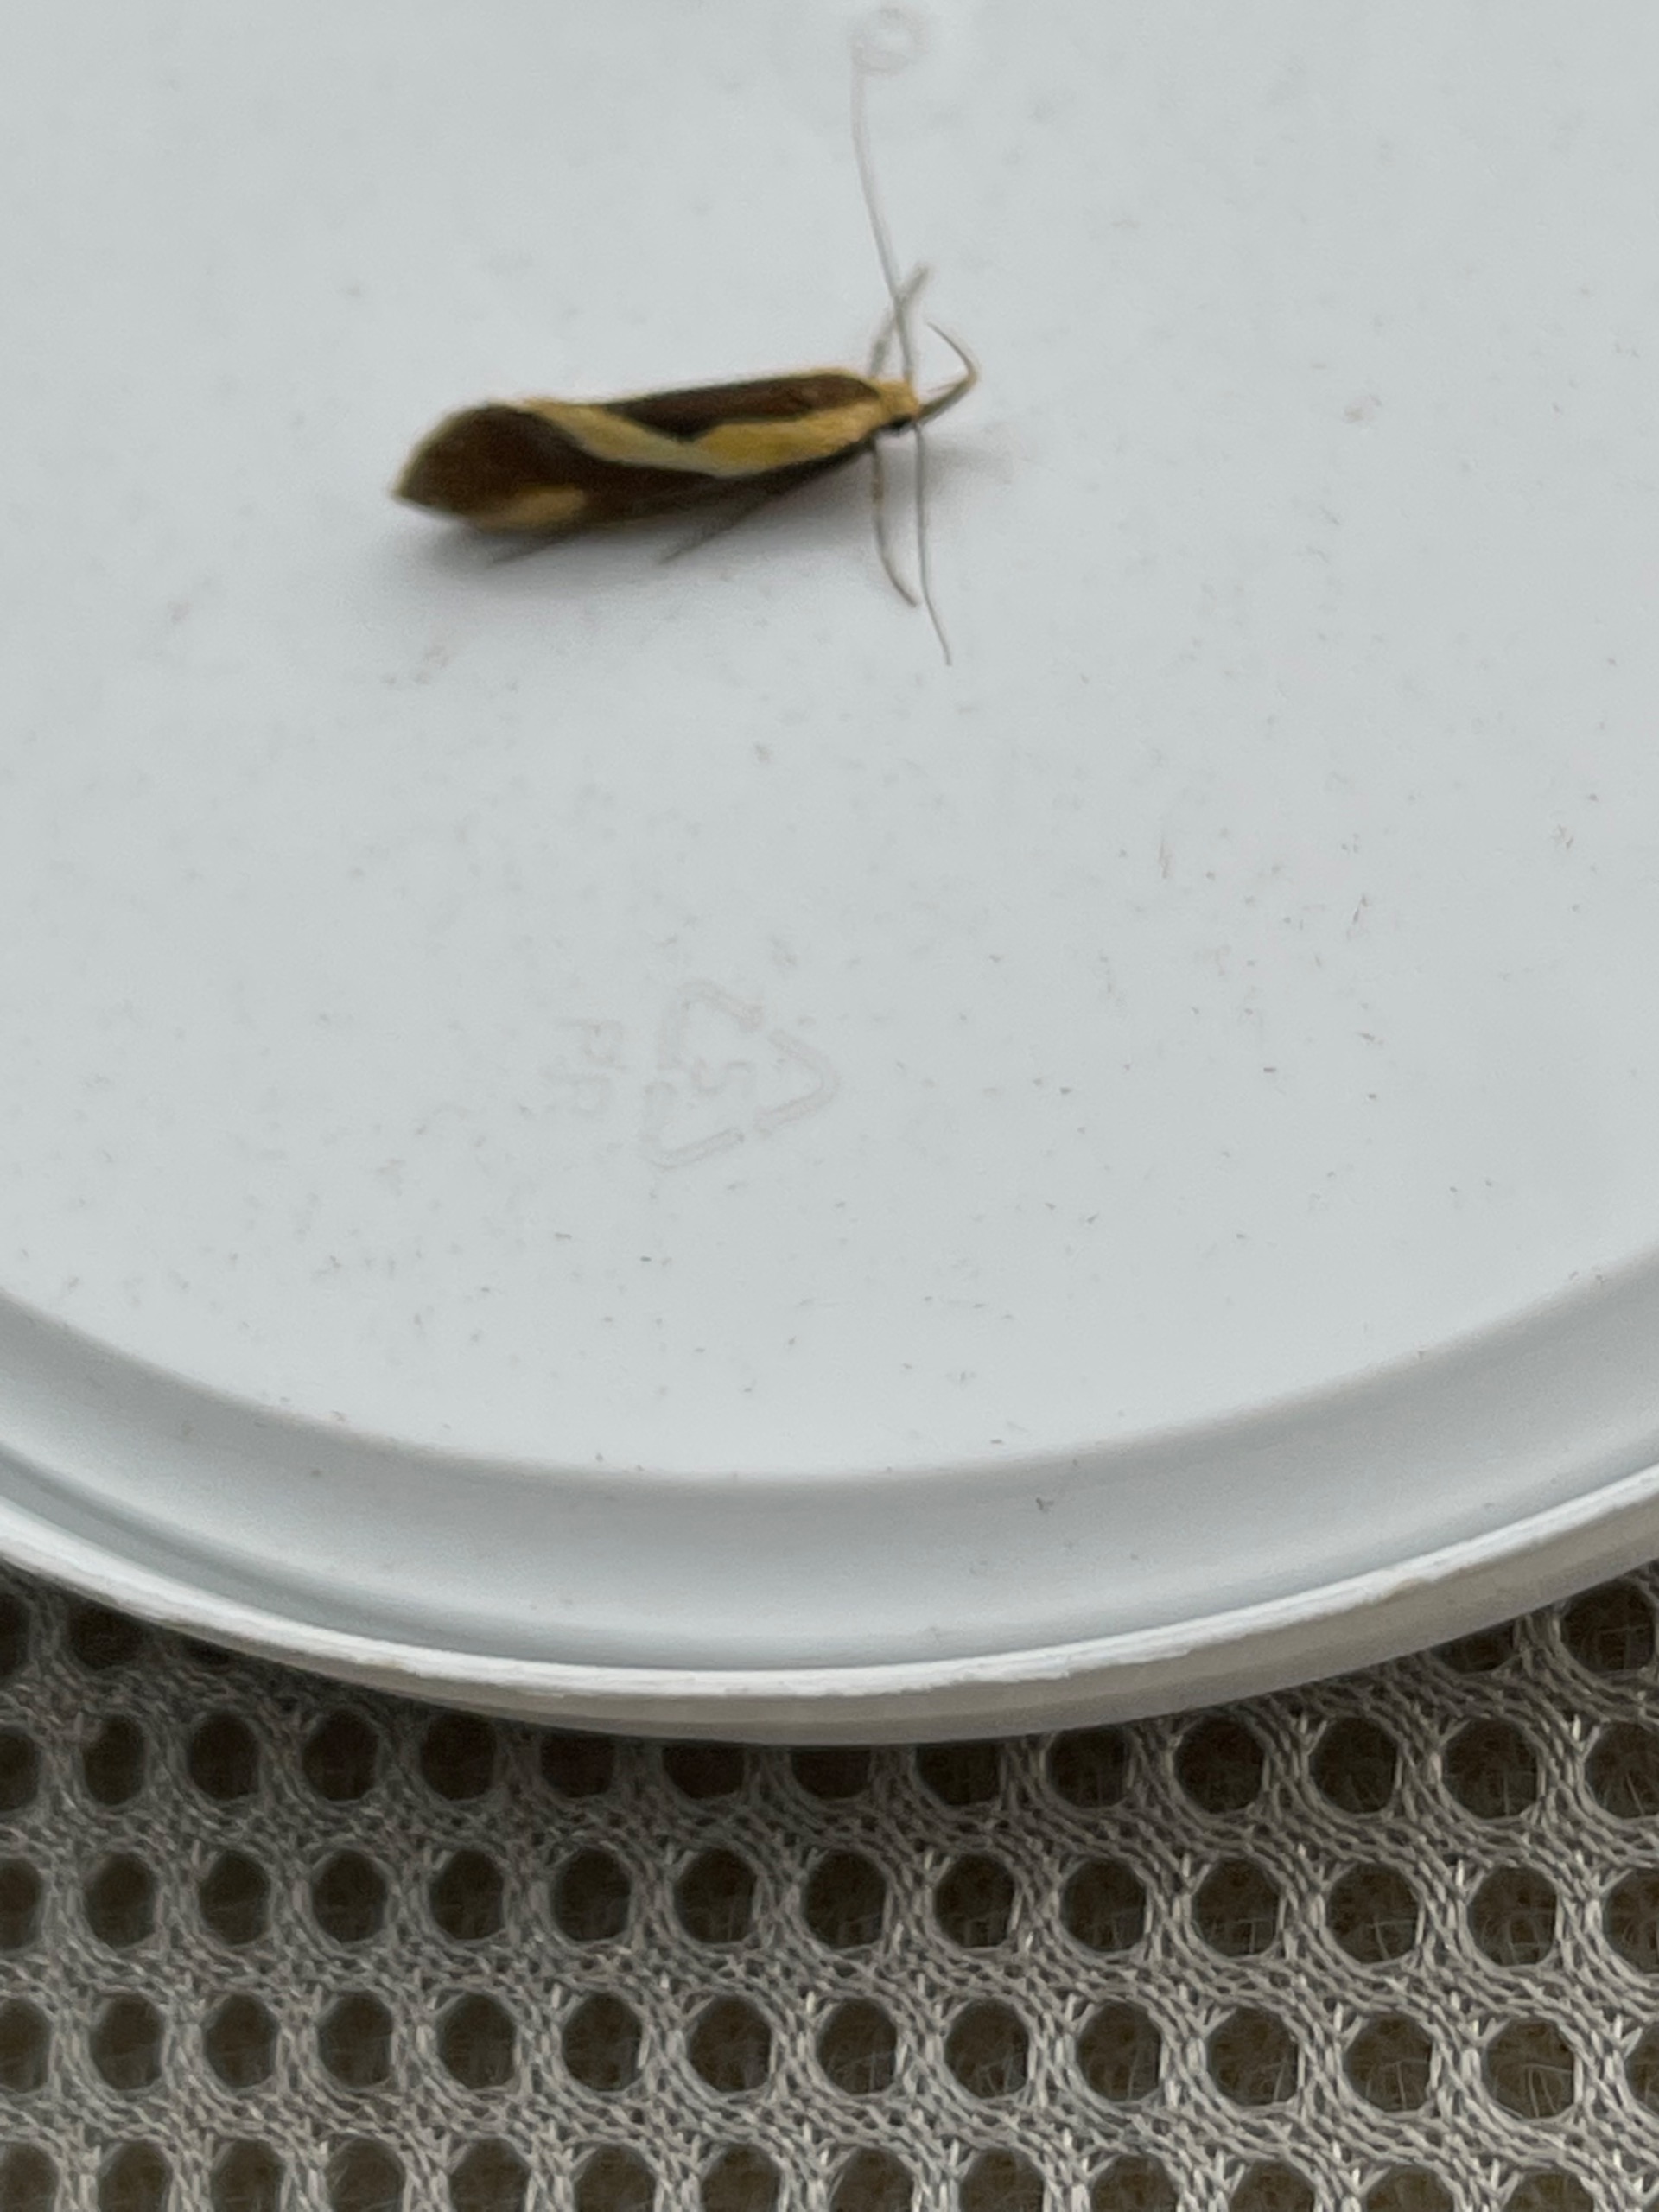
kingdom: Animalia
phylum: Arthropoda
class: Insecta
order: Lepidoptera
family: Oecophoridae
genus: Harpella
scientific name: Harpella forficella
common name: Kæmpeprydvinge
